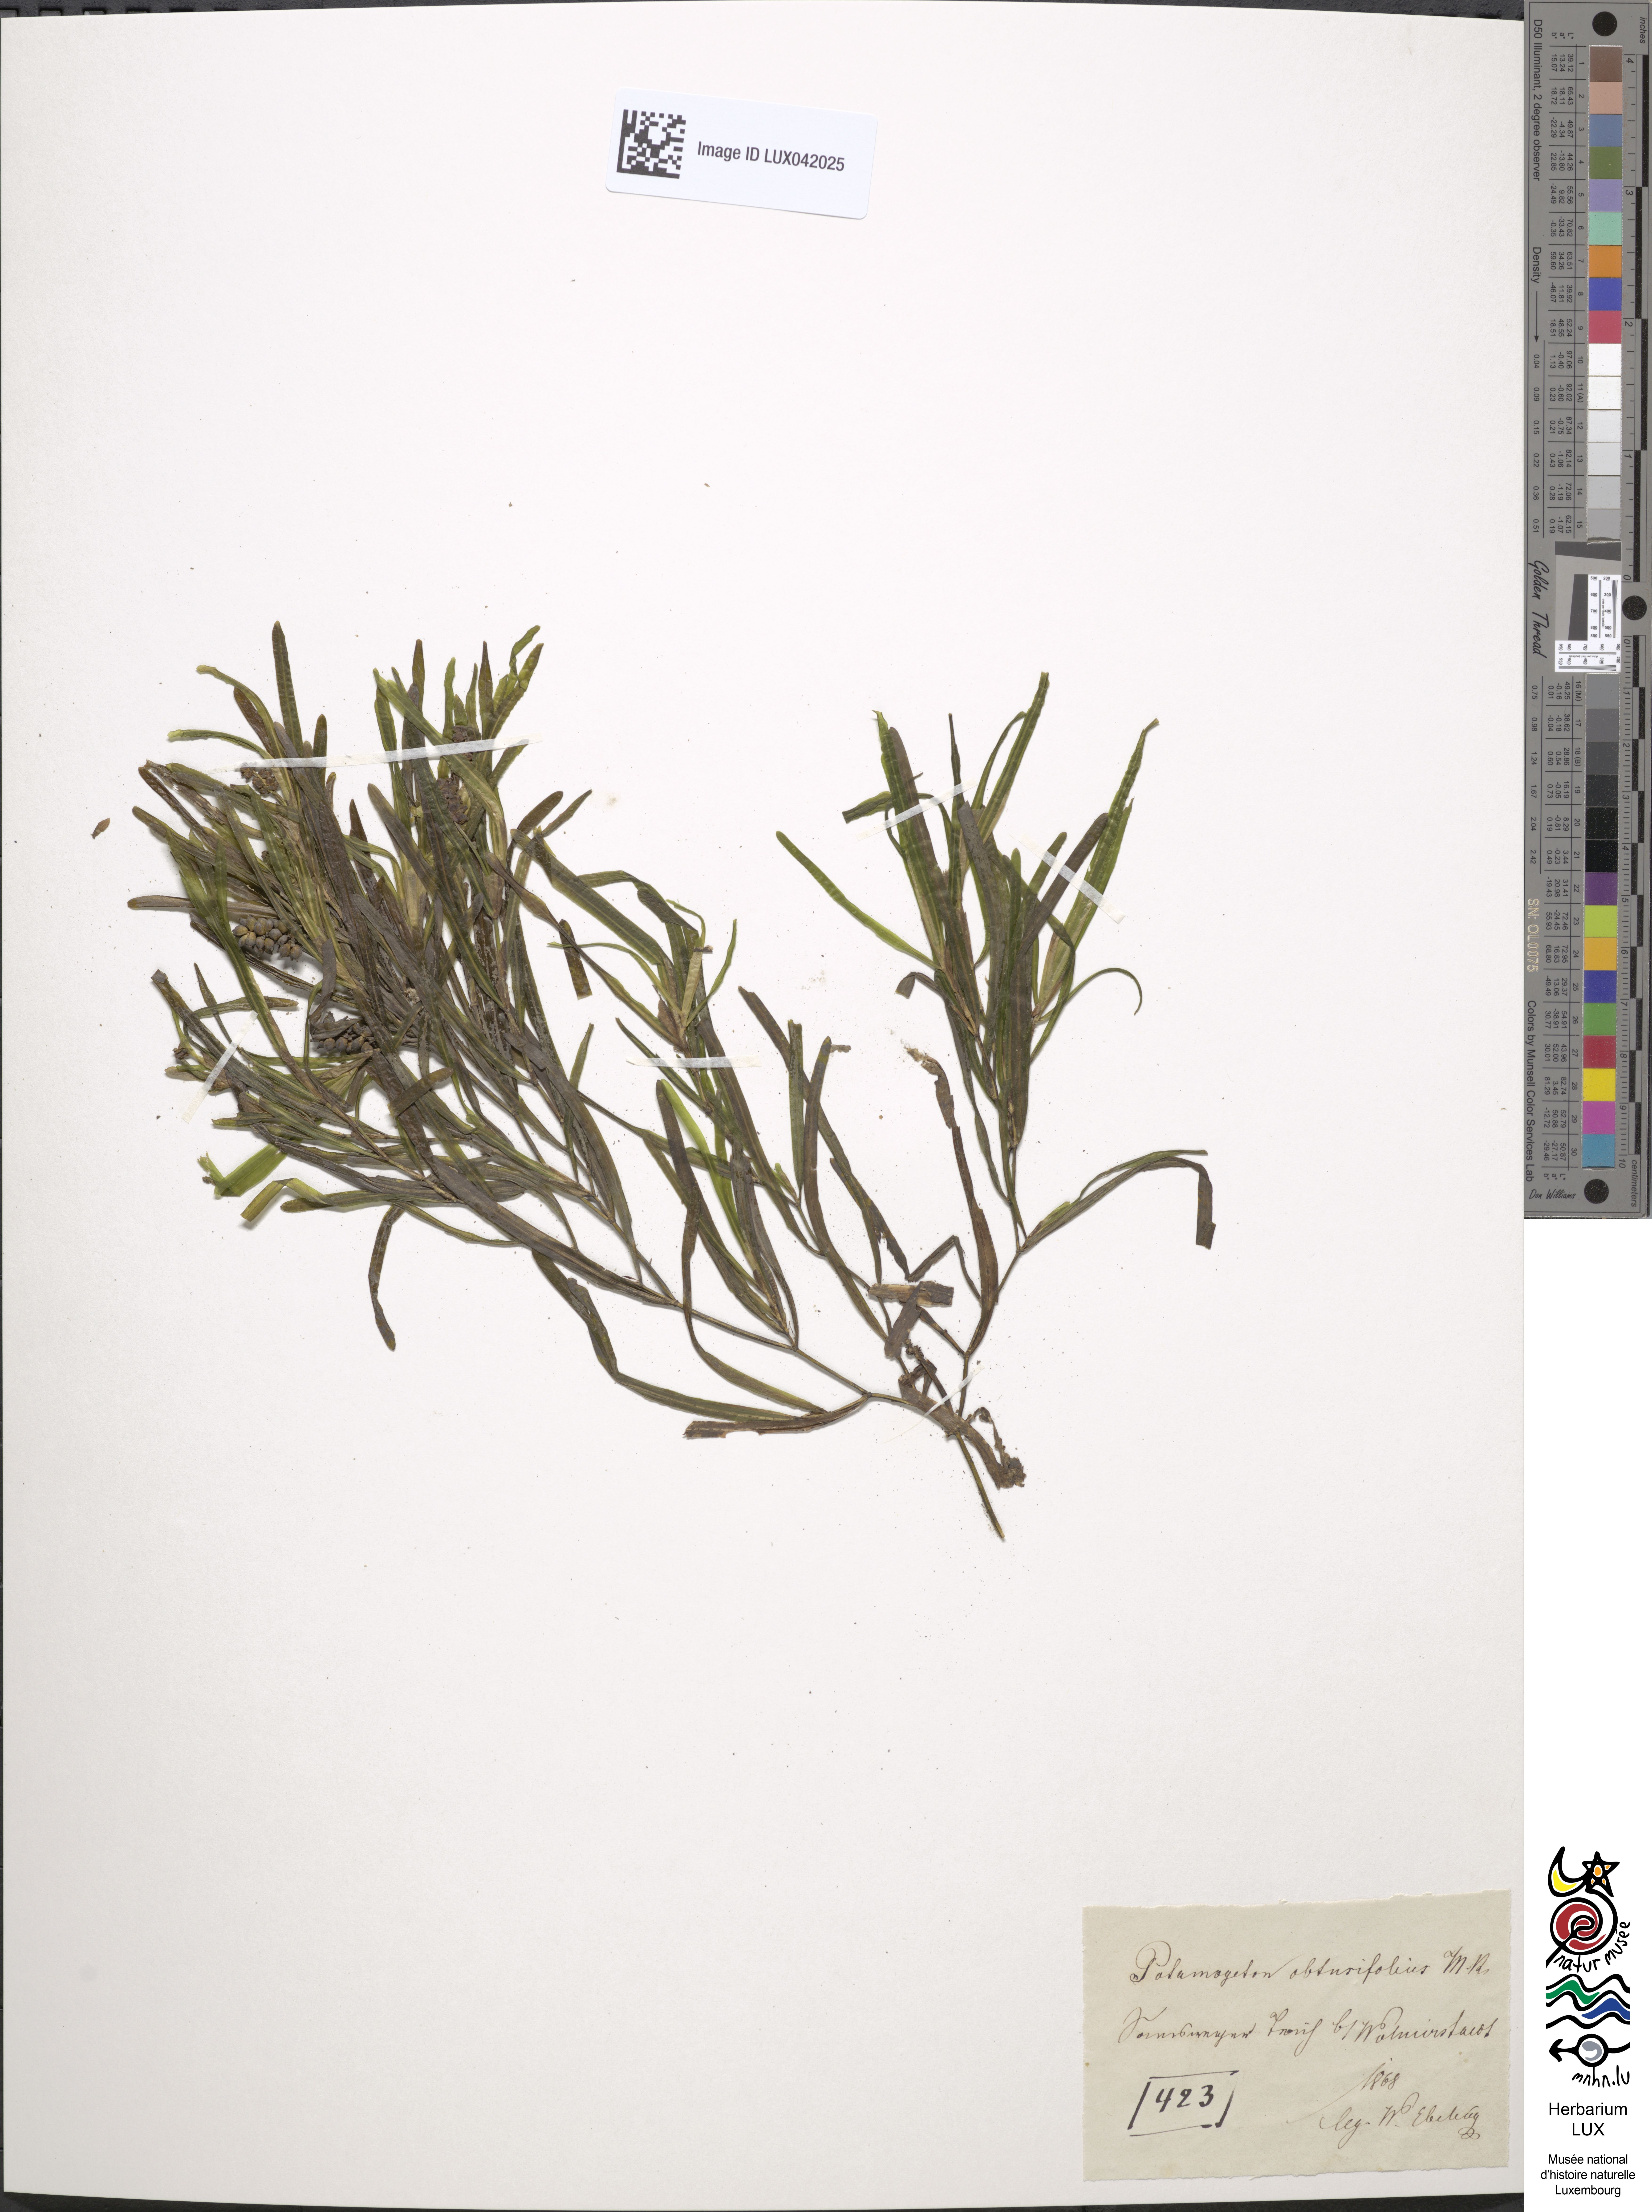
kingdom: Plantae
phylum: Tracheophyta
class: Liliopsida
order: Alismatales
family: Potamogetonaceae
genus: Potamogeton
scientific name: Potamogeton obtusifolius
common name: Blunt-leaved pondweed
